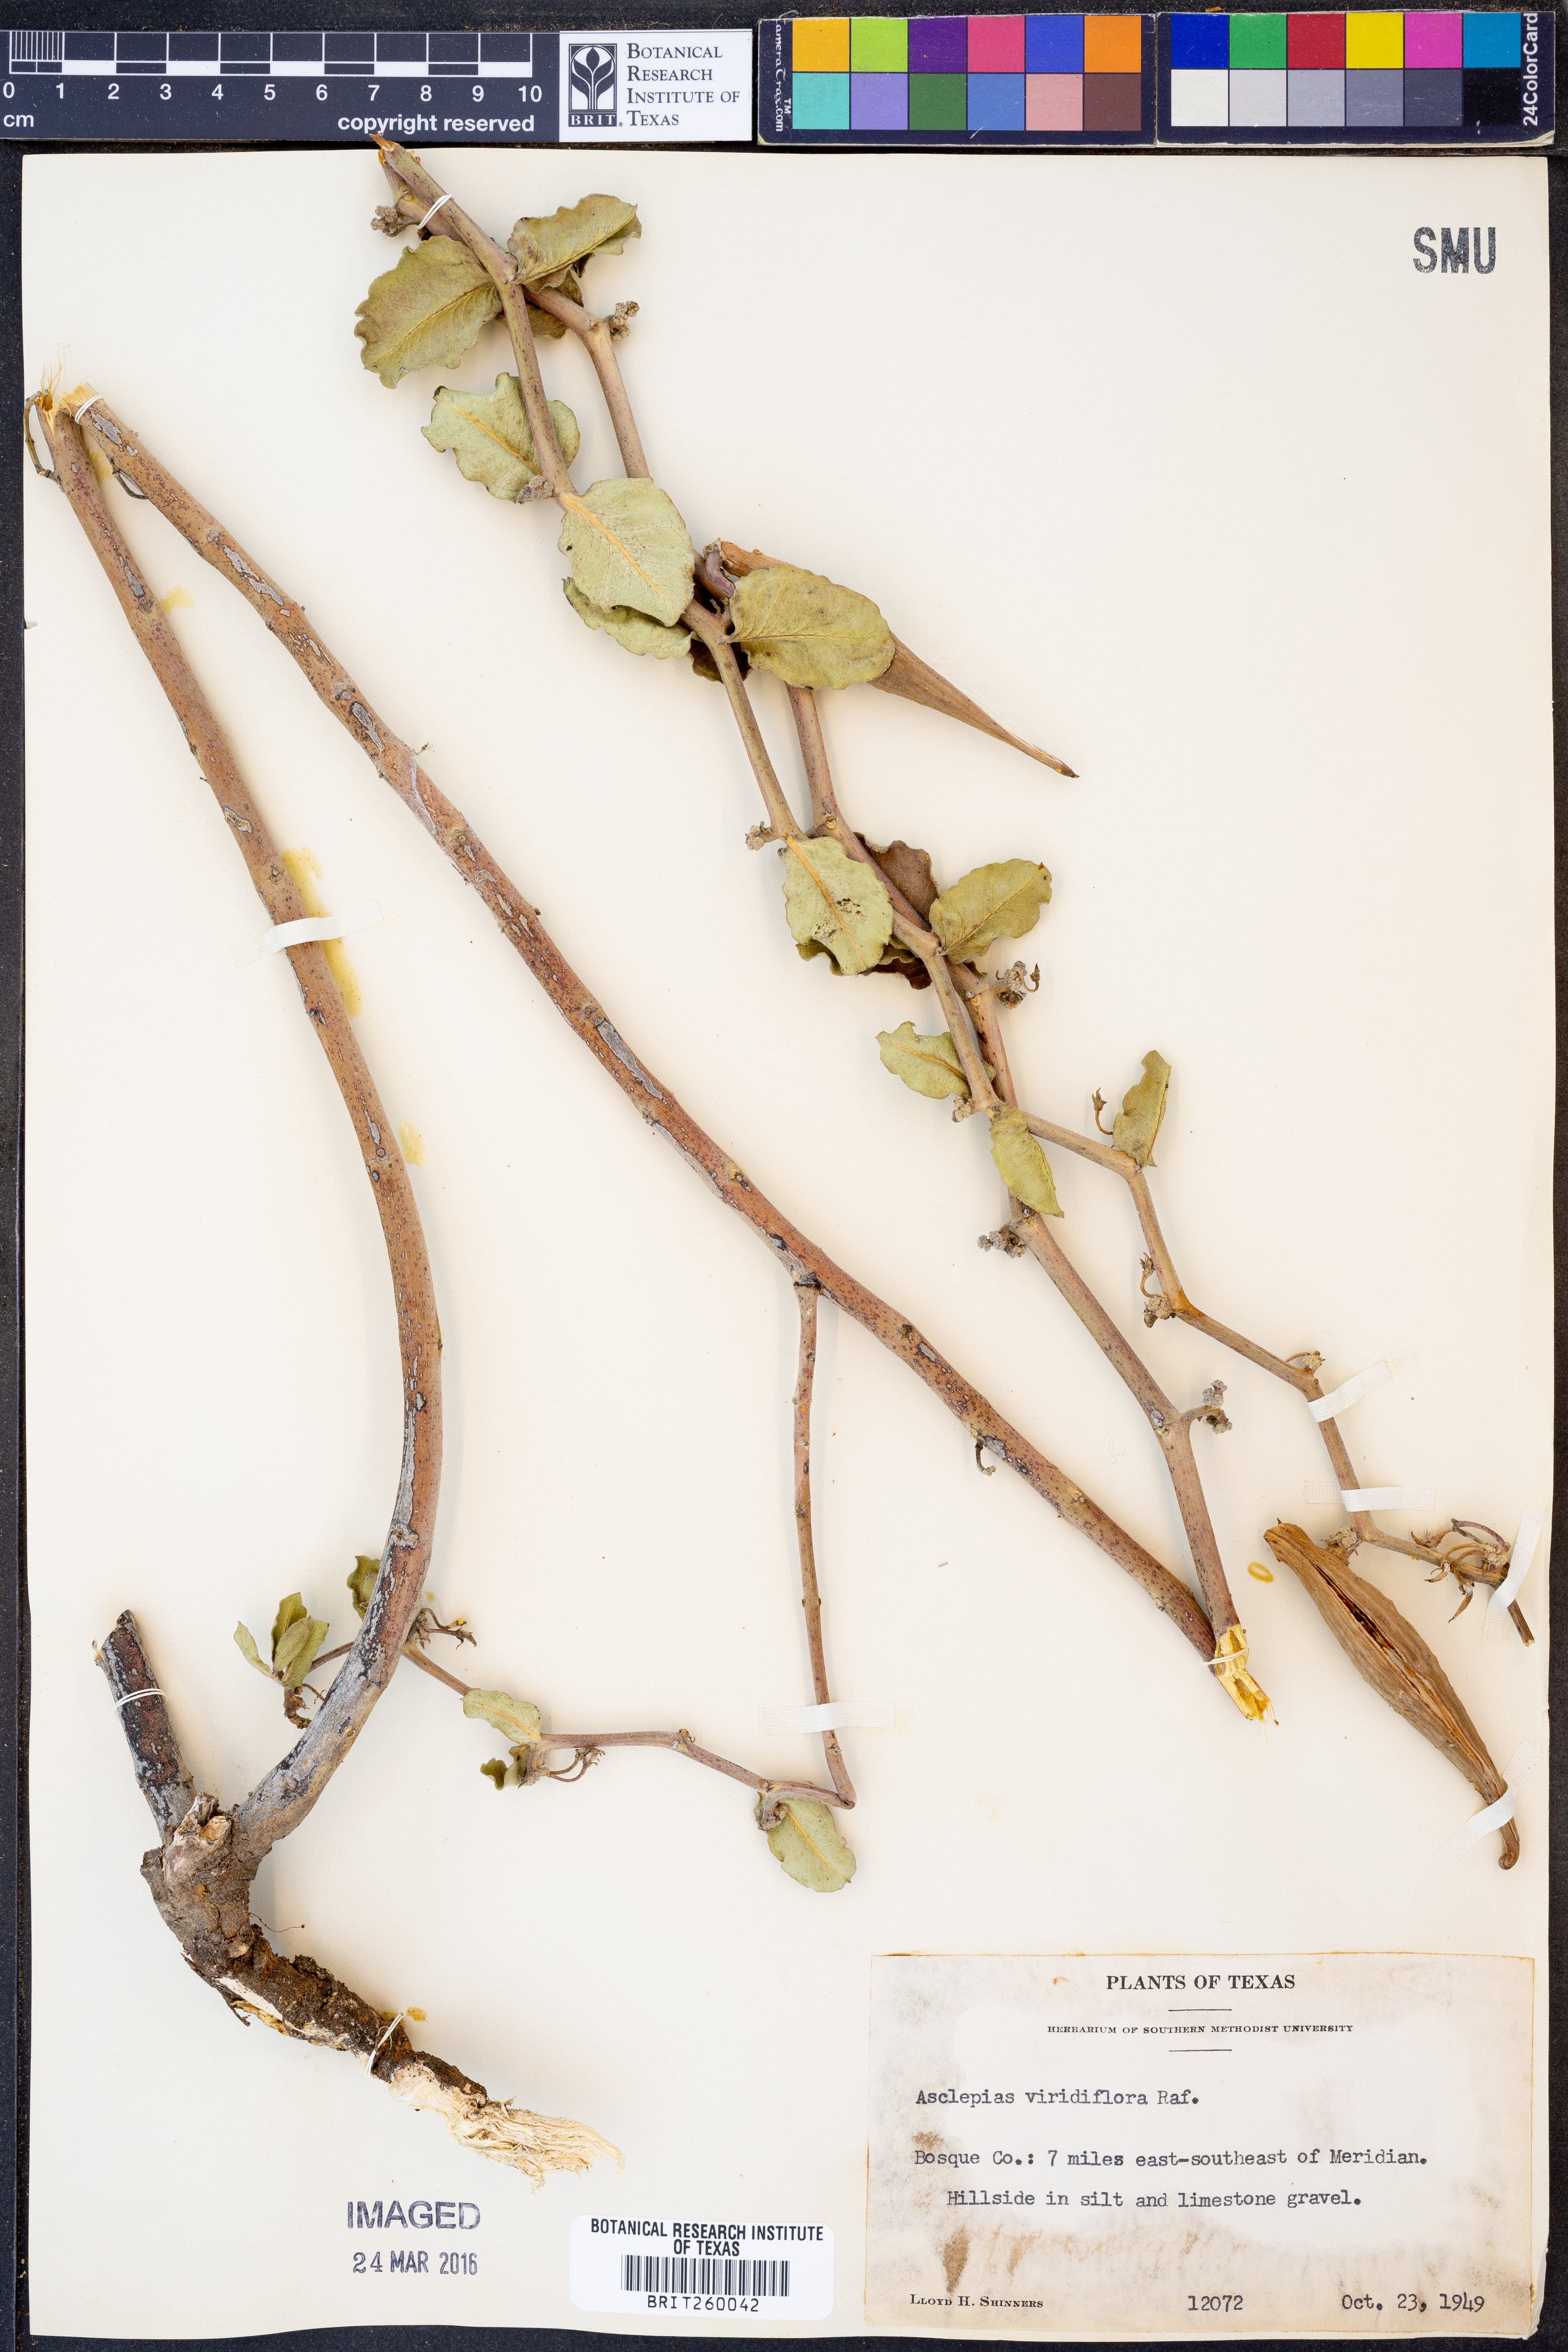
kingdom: Plantae
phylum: Tracheophyta
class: Magnoliopsida
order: Gentianales
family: Apocynaceae
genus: Asclepias
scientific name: Asclepias viridiflora
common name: Green comet milkweed
